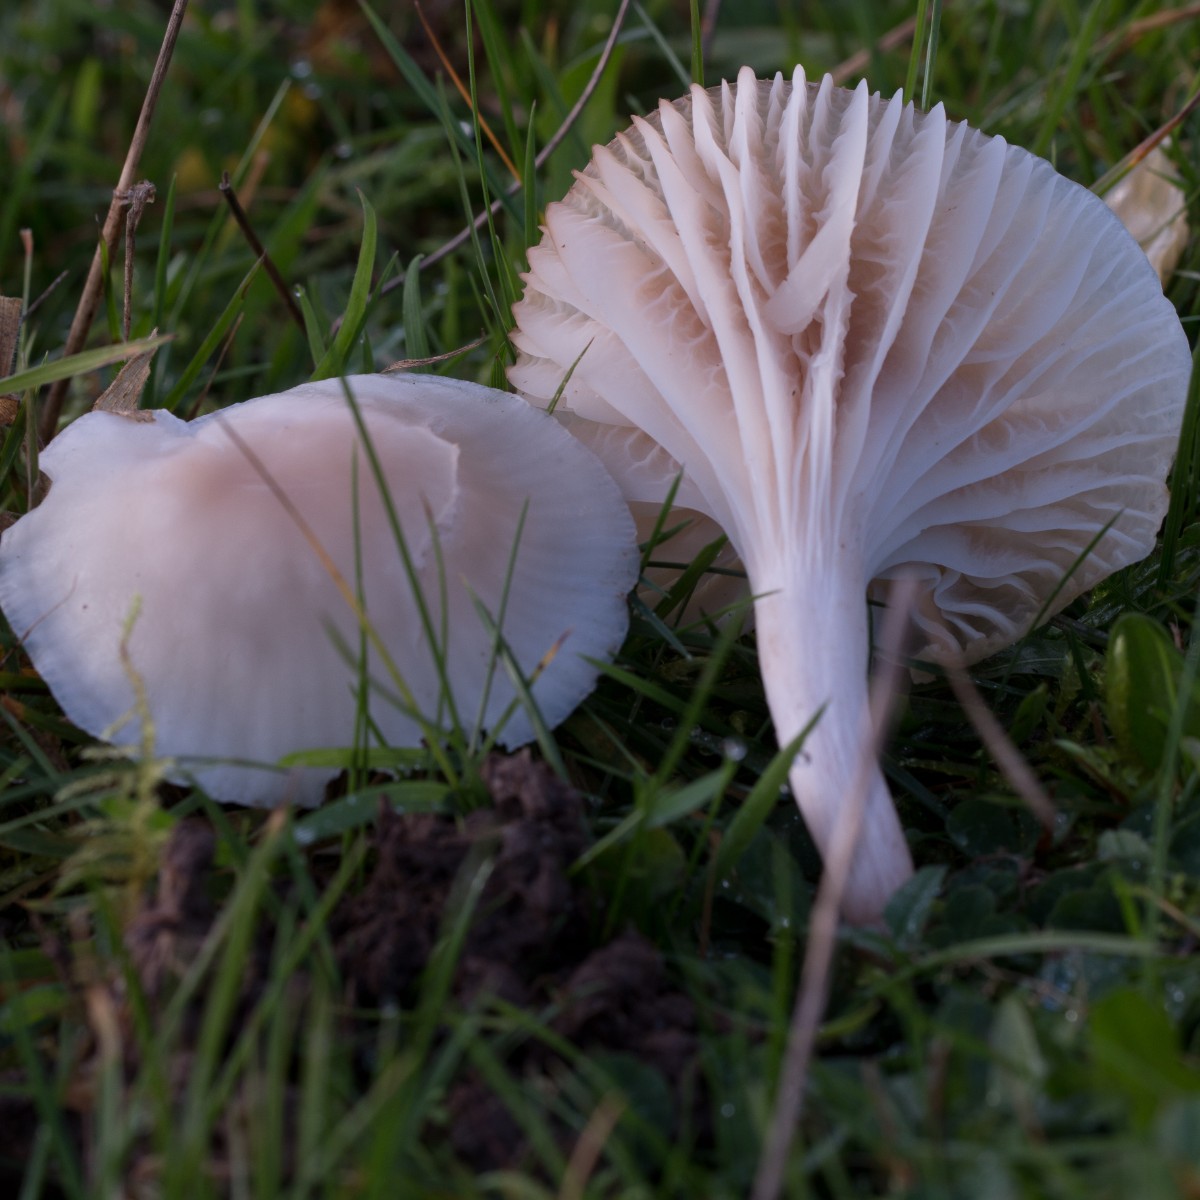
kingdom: Fungi
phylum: Basidiomycota
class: Agaricomycetes
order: Agaricales
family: Hygrophoraceae
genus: Cuphophyllus
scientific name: Cuphophyllus virgineus
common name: snehvid vokshat
